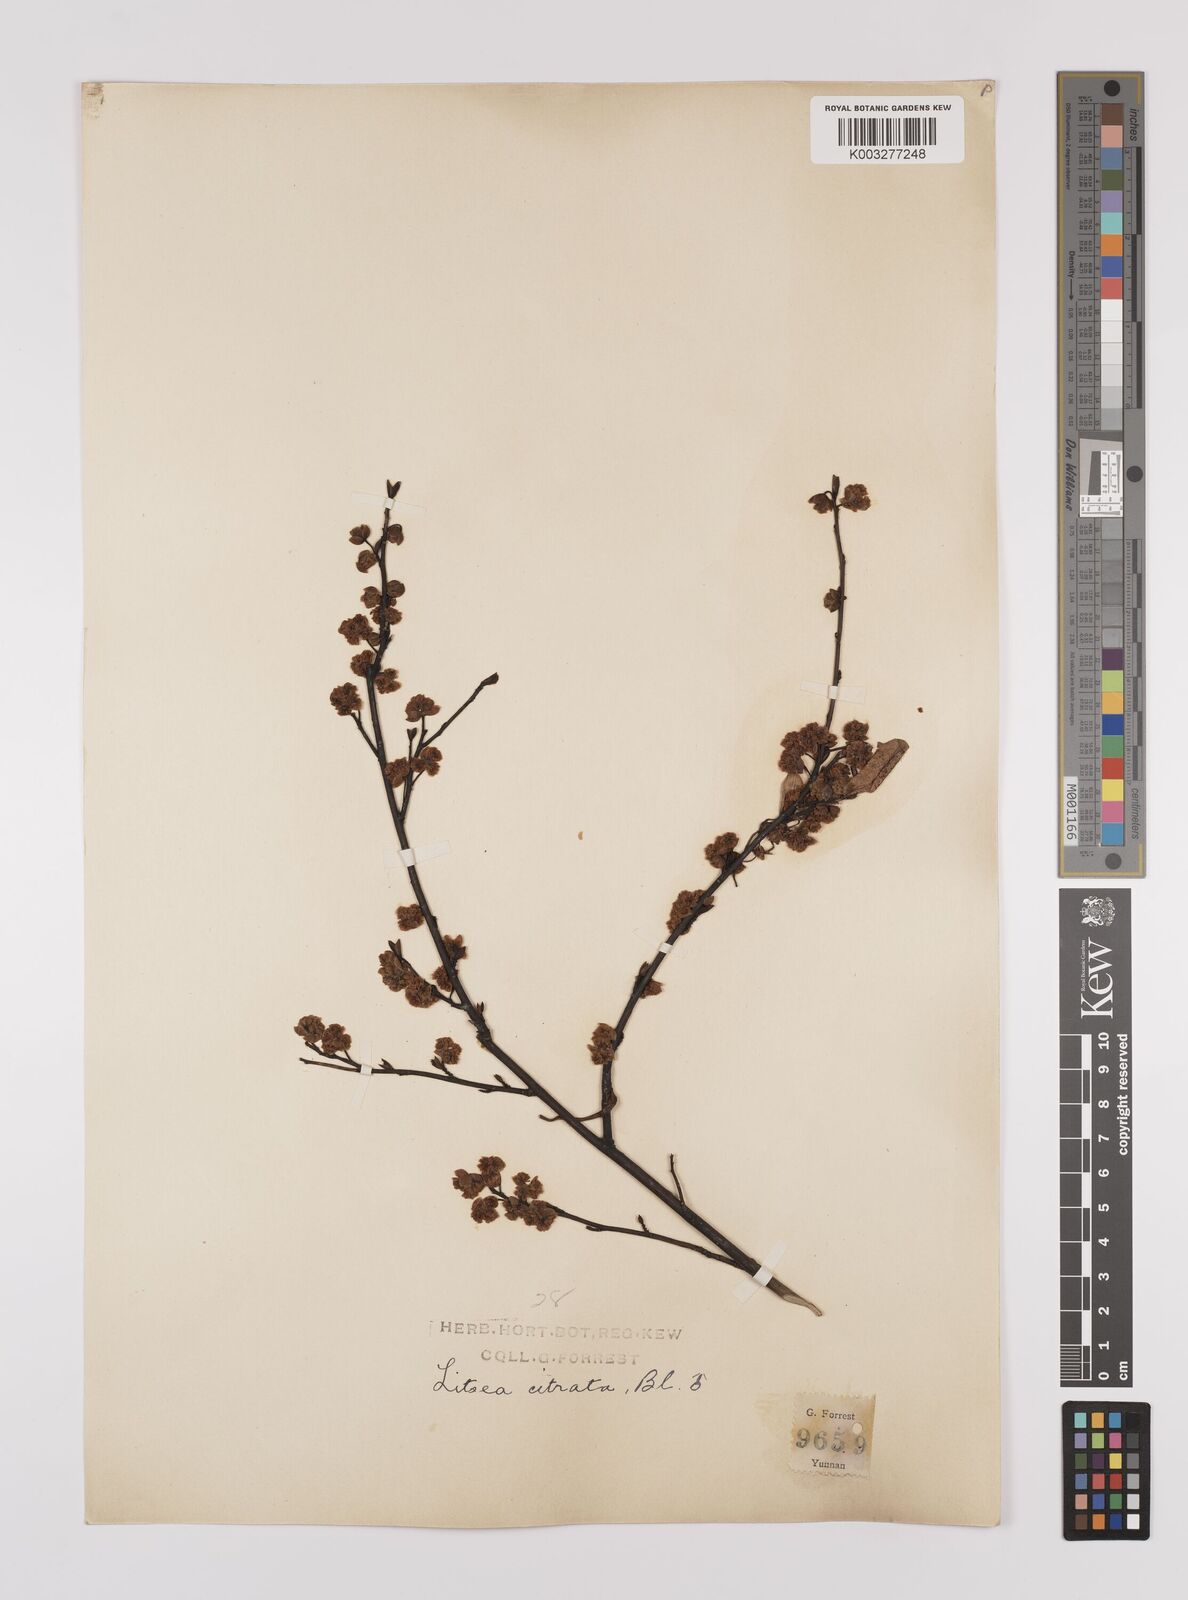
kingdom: Plantae
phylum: Tracheophyta
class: Magnoliopsida
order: Laurales
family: Lauraceae
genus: Litsea
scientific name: Litsea cubeba
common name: Mountain-pepper
